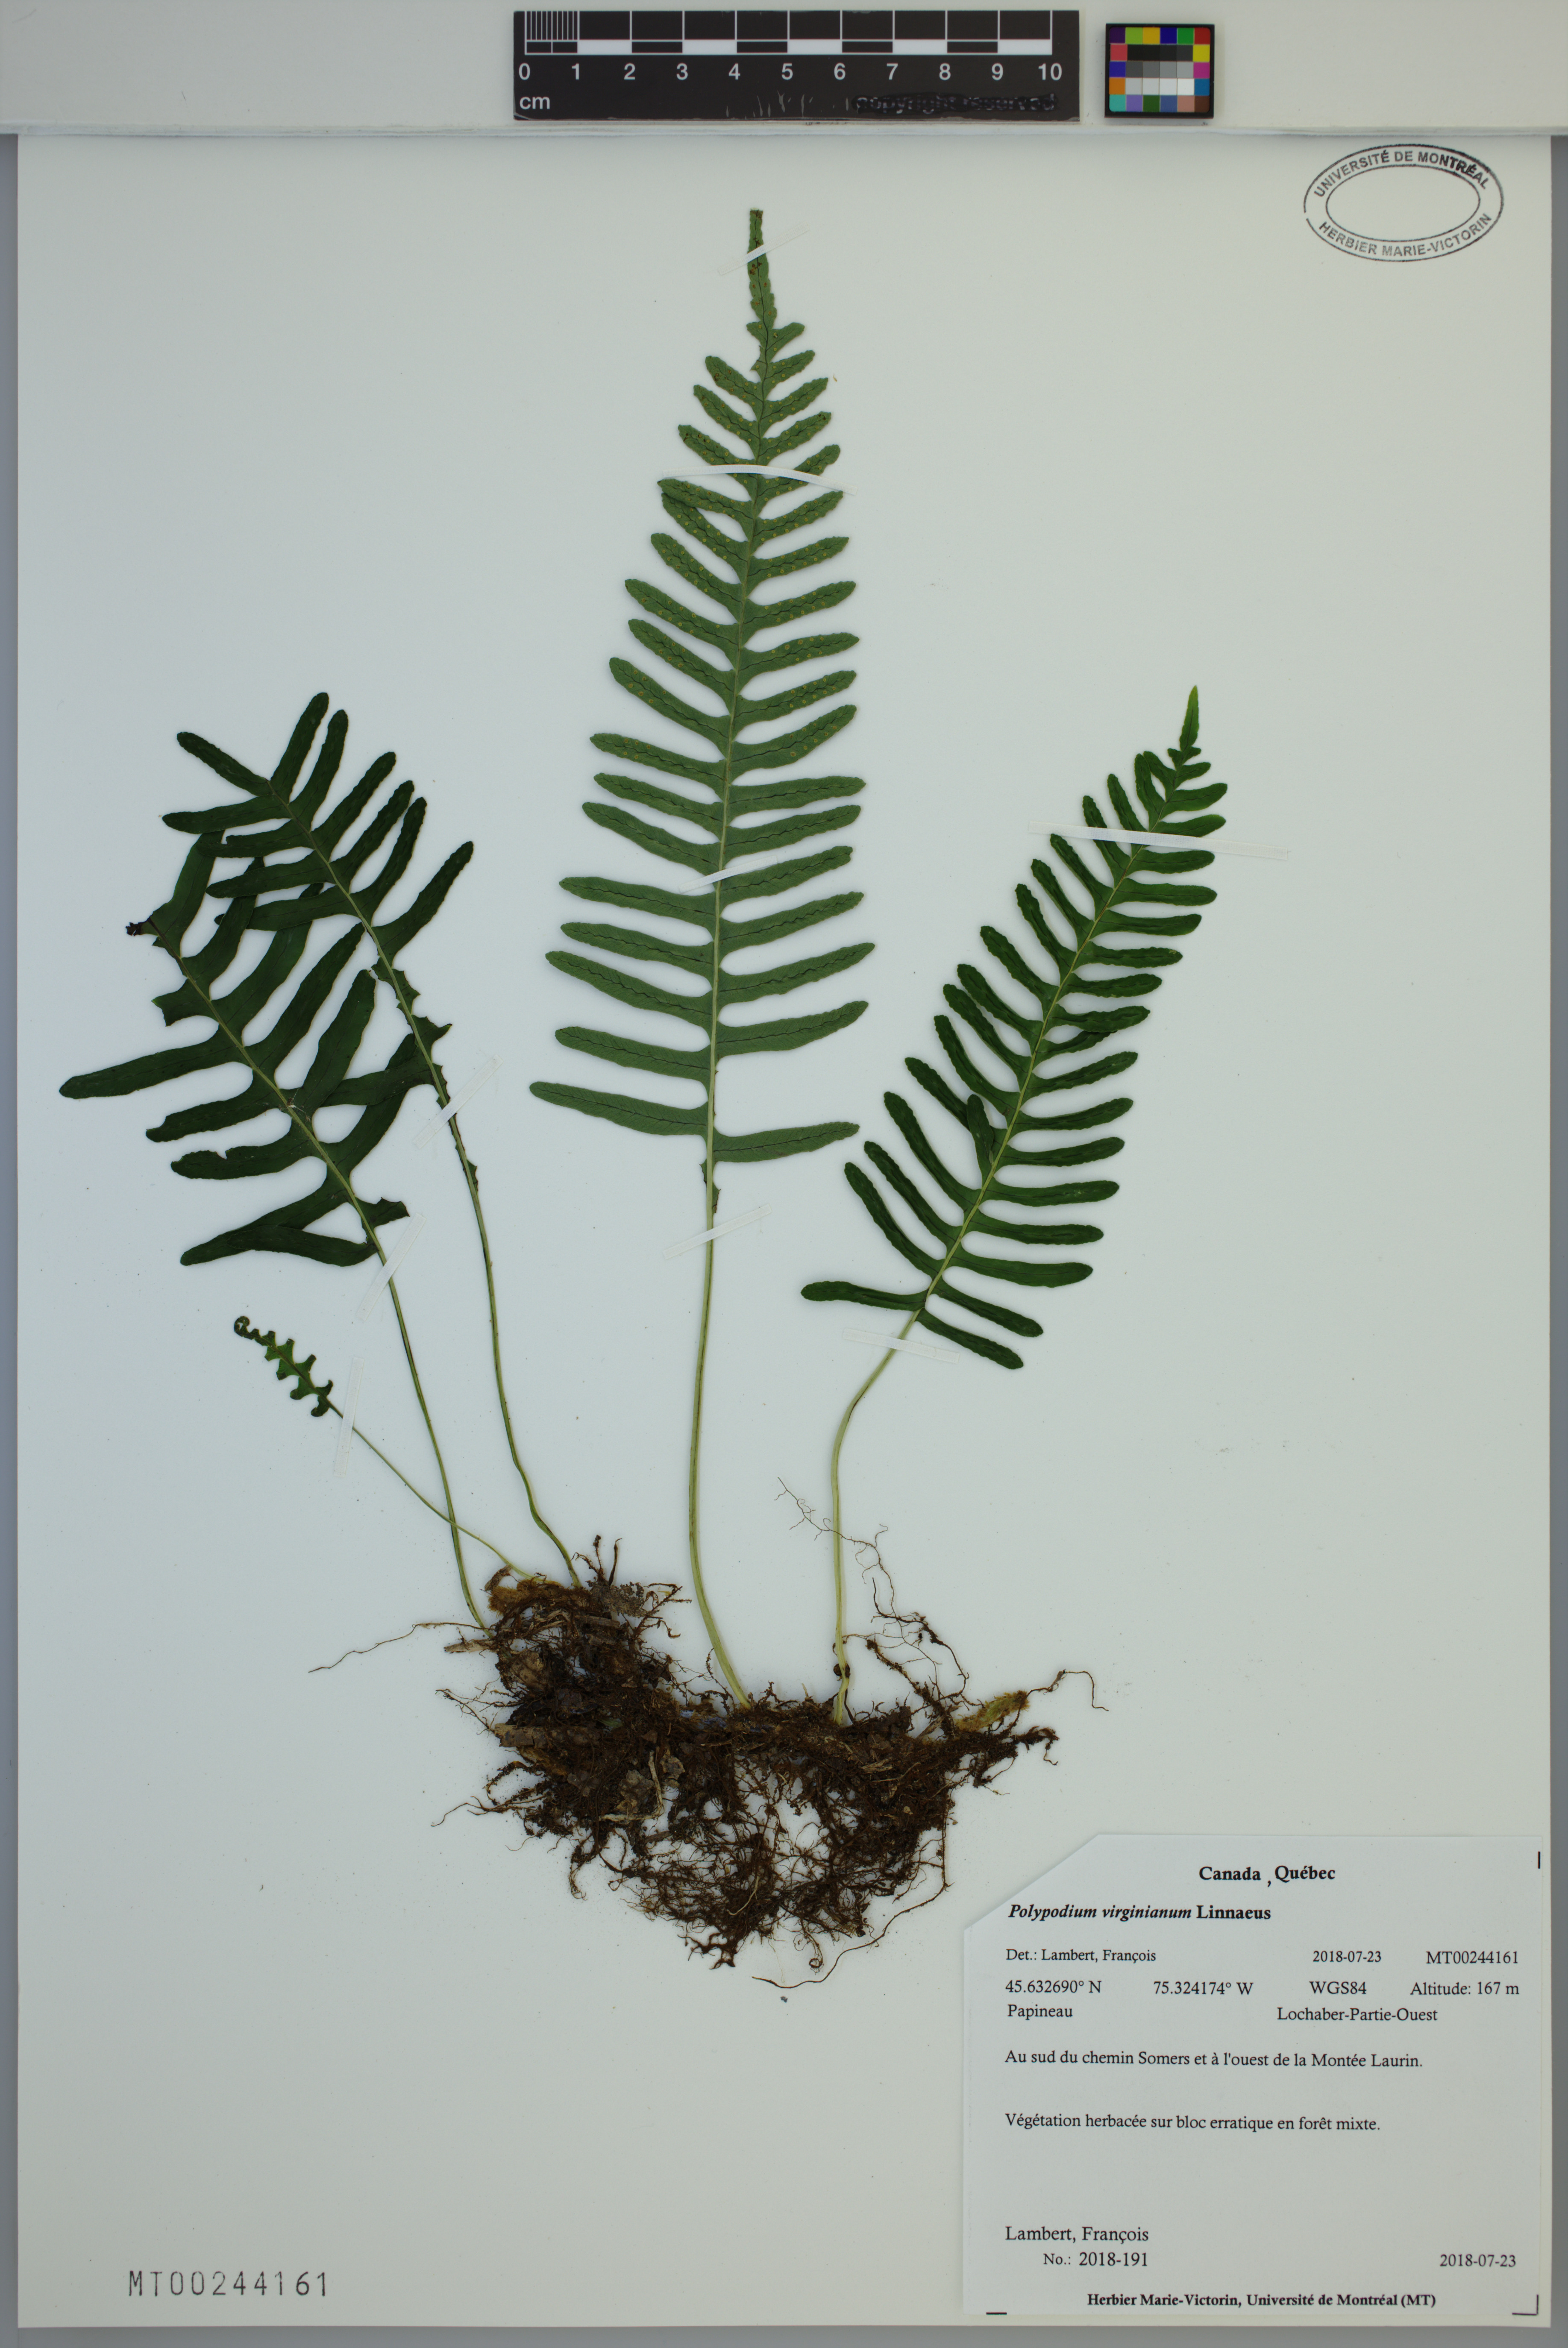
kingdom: Plantae
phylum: Tracheophyta
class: Polypodiopsida
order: Polypodiales
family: Polypodiaceae
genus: Polypodium
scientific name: Polypodium virginianum
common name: American wall fern
